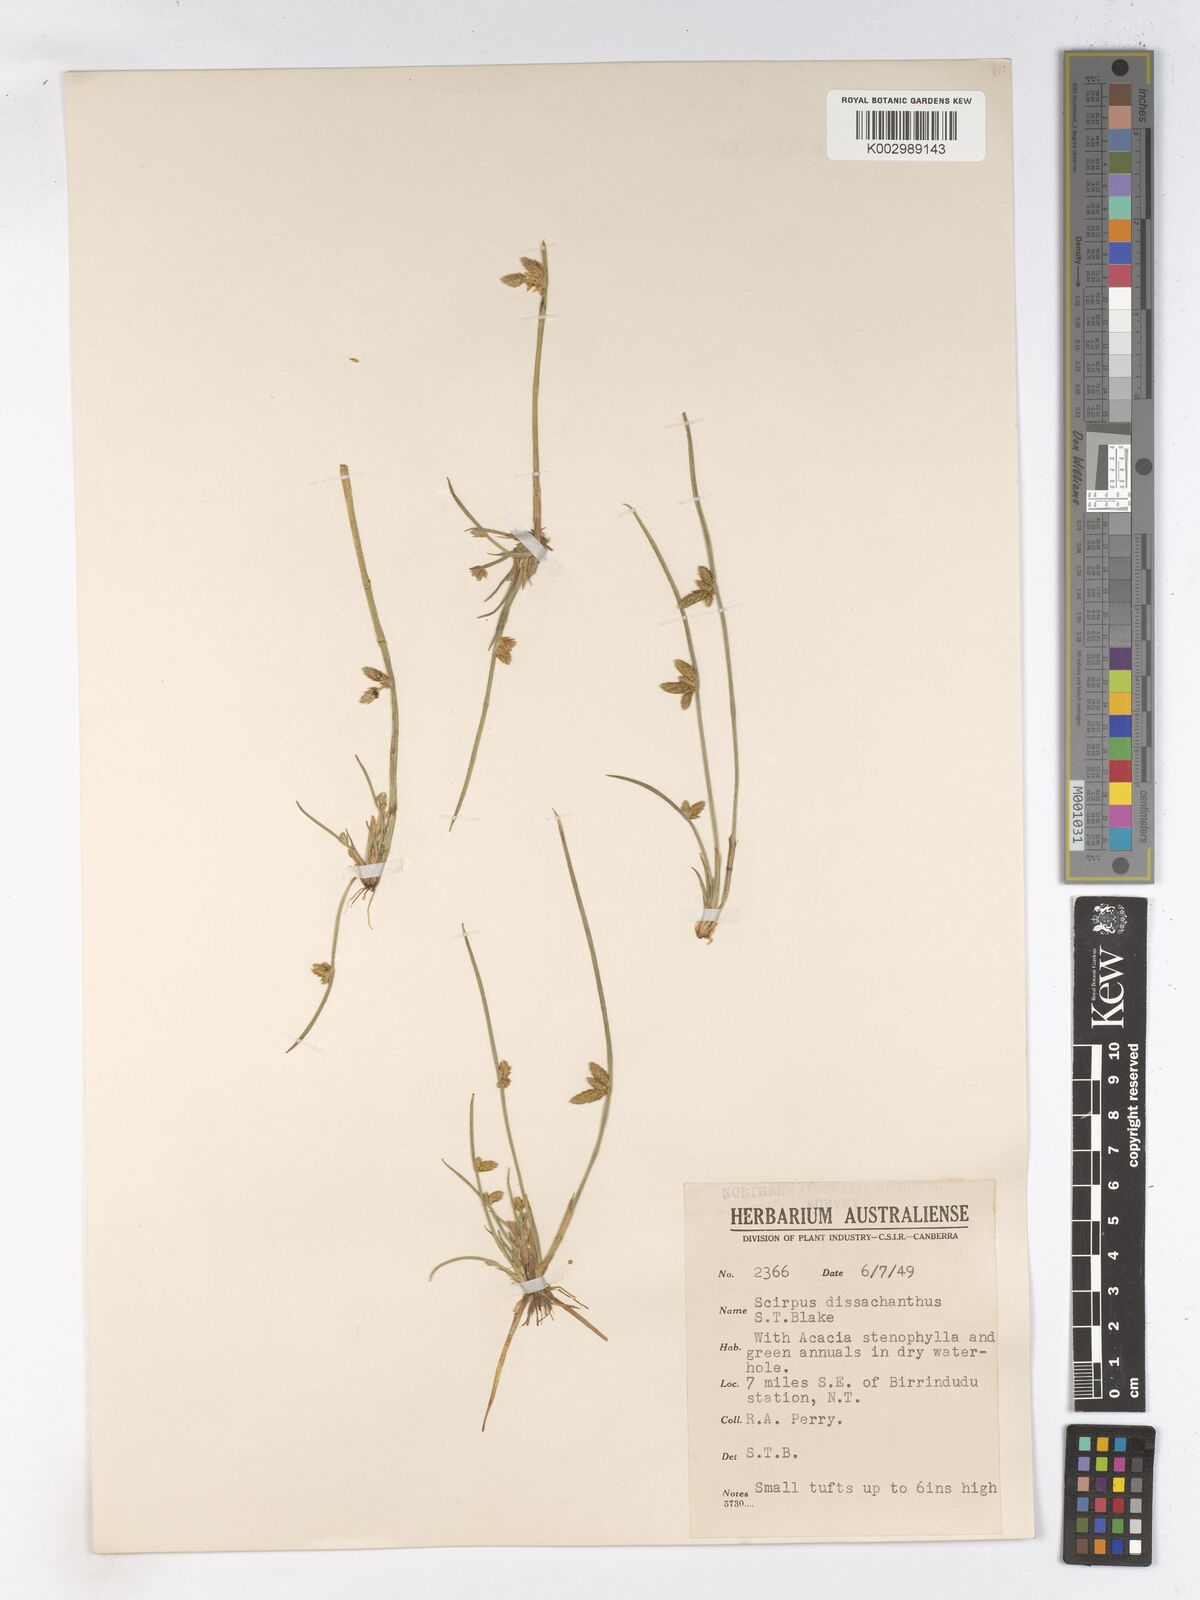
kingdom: Plantae
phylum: Tracheophyta
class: Liliopsida
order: Poales
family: Cyperaceae
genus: Schoenoplectiella
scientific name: Schoenoplectiella dissachantha
